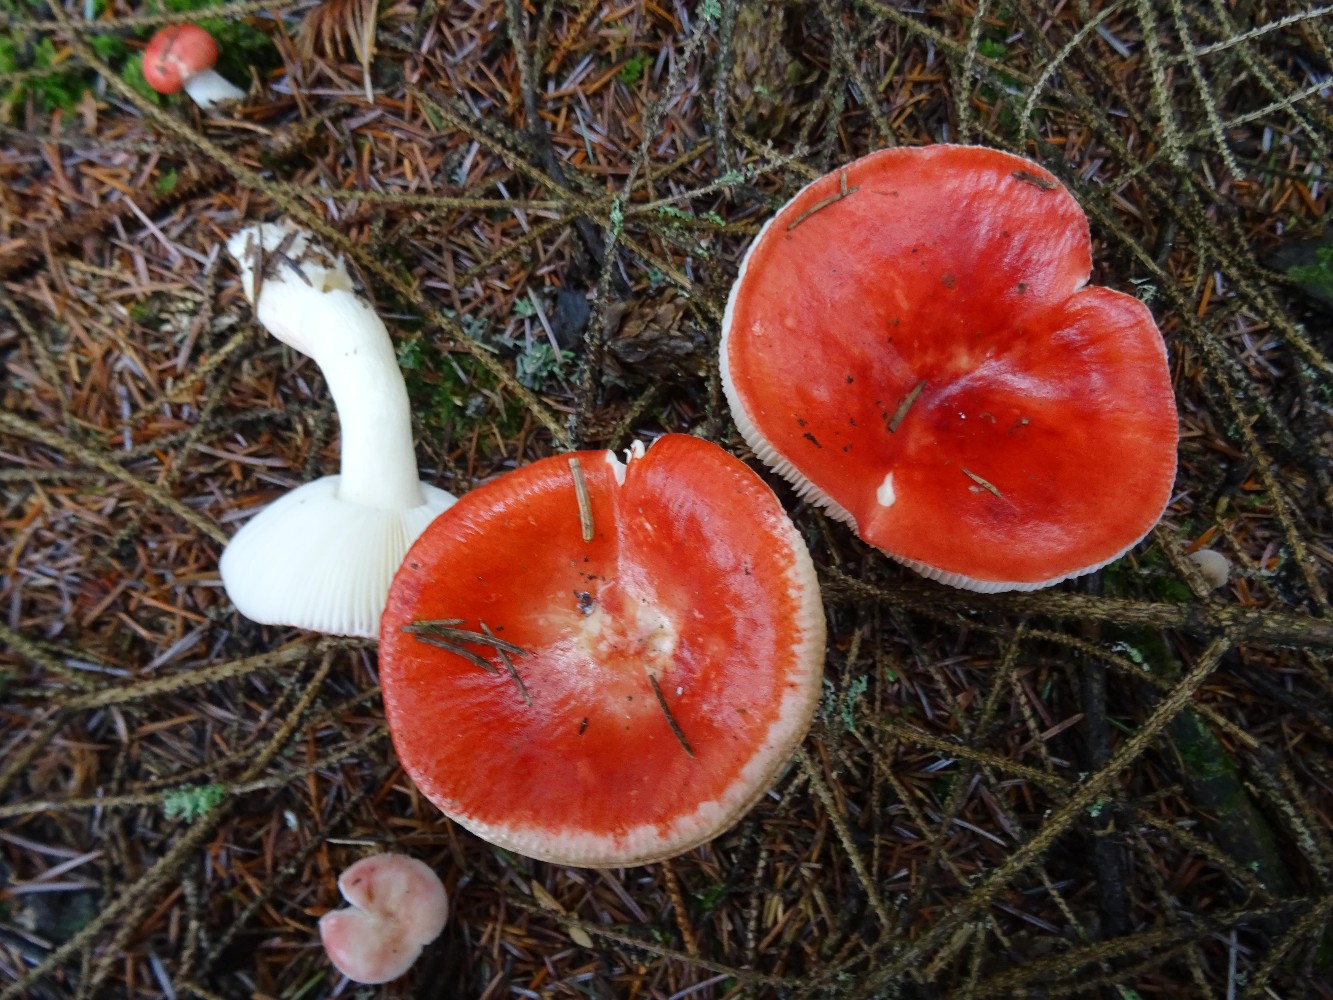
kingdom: Fungi
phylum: Basidiomycota
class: Agaricomycetes
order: Russulales
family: Russulaceae
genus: Russula
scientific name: Russula emetica
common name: stor gift-skørhat
